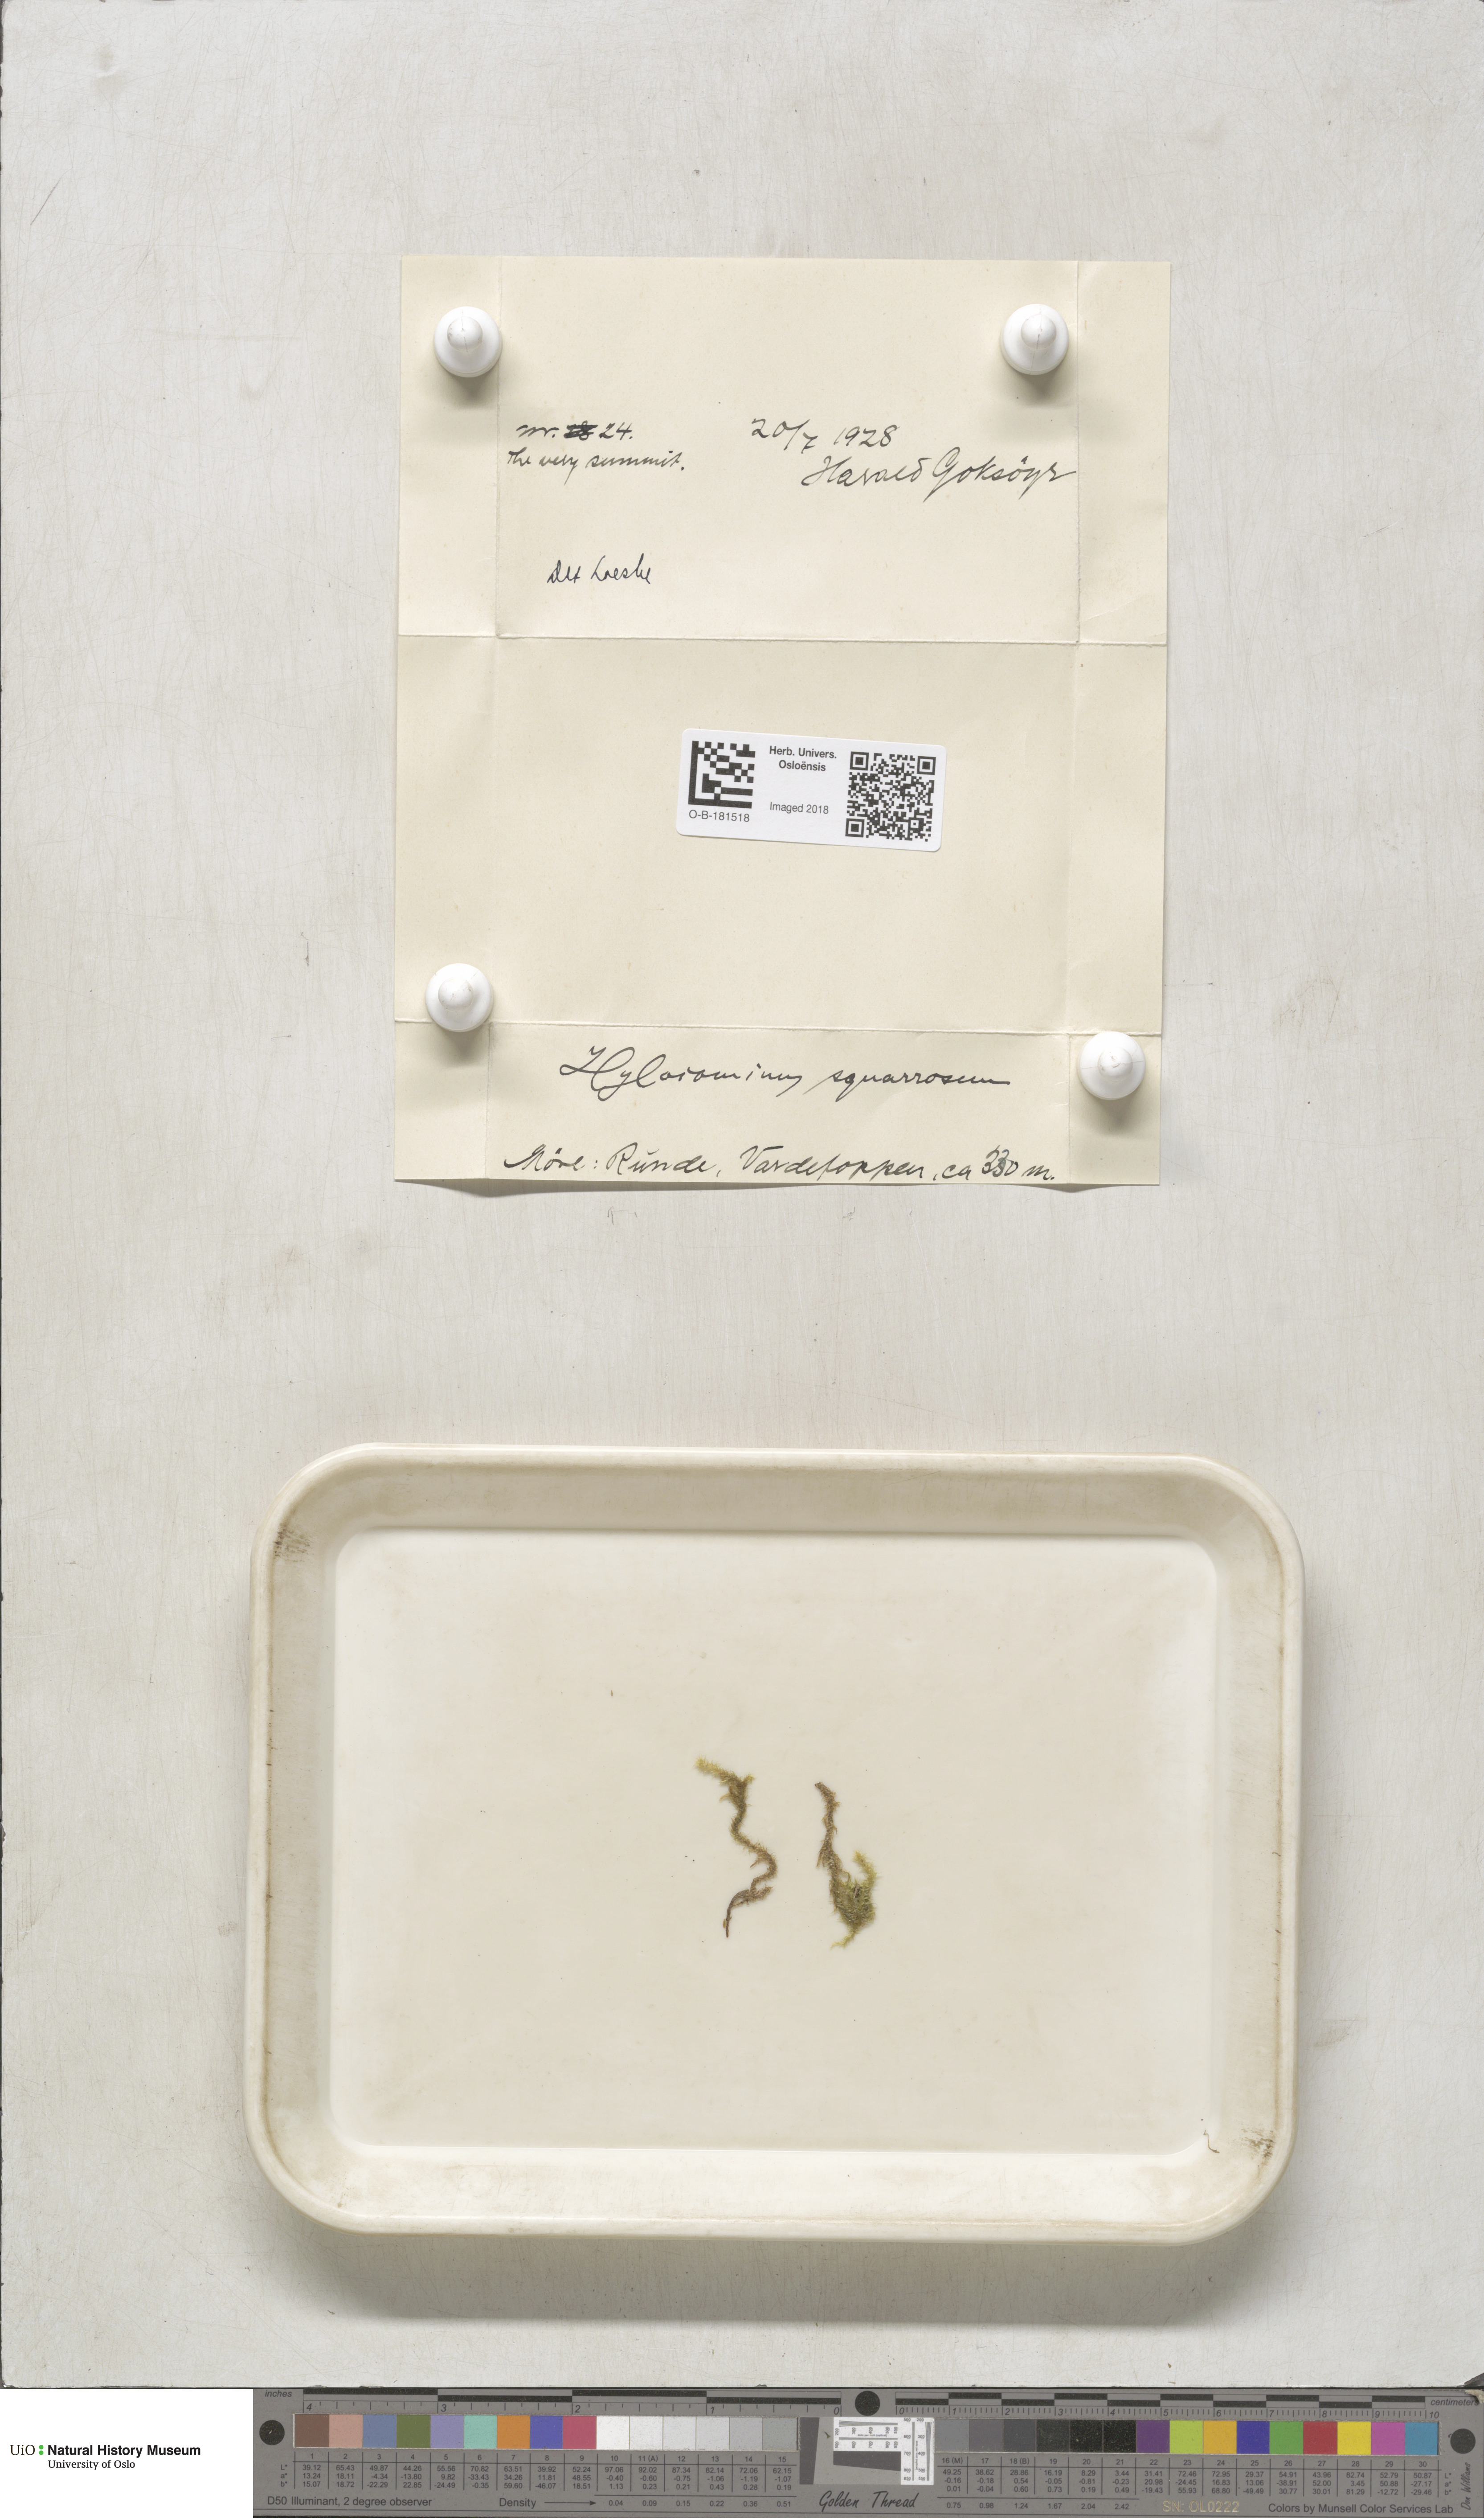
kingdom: Plantae
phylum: Bryophyta
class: Bryopsida
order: Hypnales
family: Hylocomiaceae
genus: Rhytidiadelphus
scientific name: Rhytidiadelphus squarrosus
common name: Springy turf-moss
